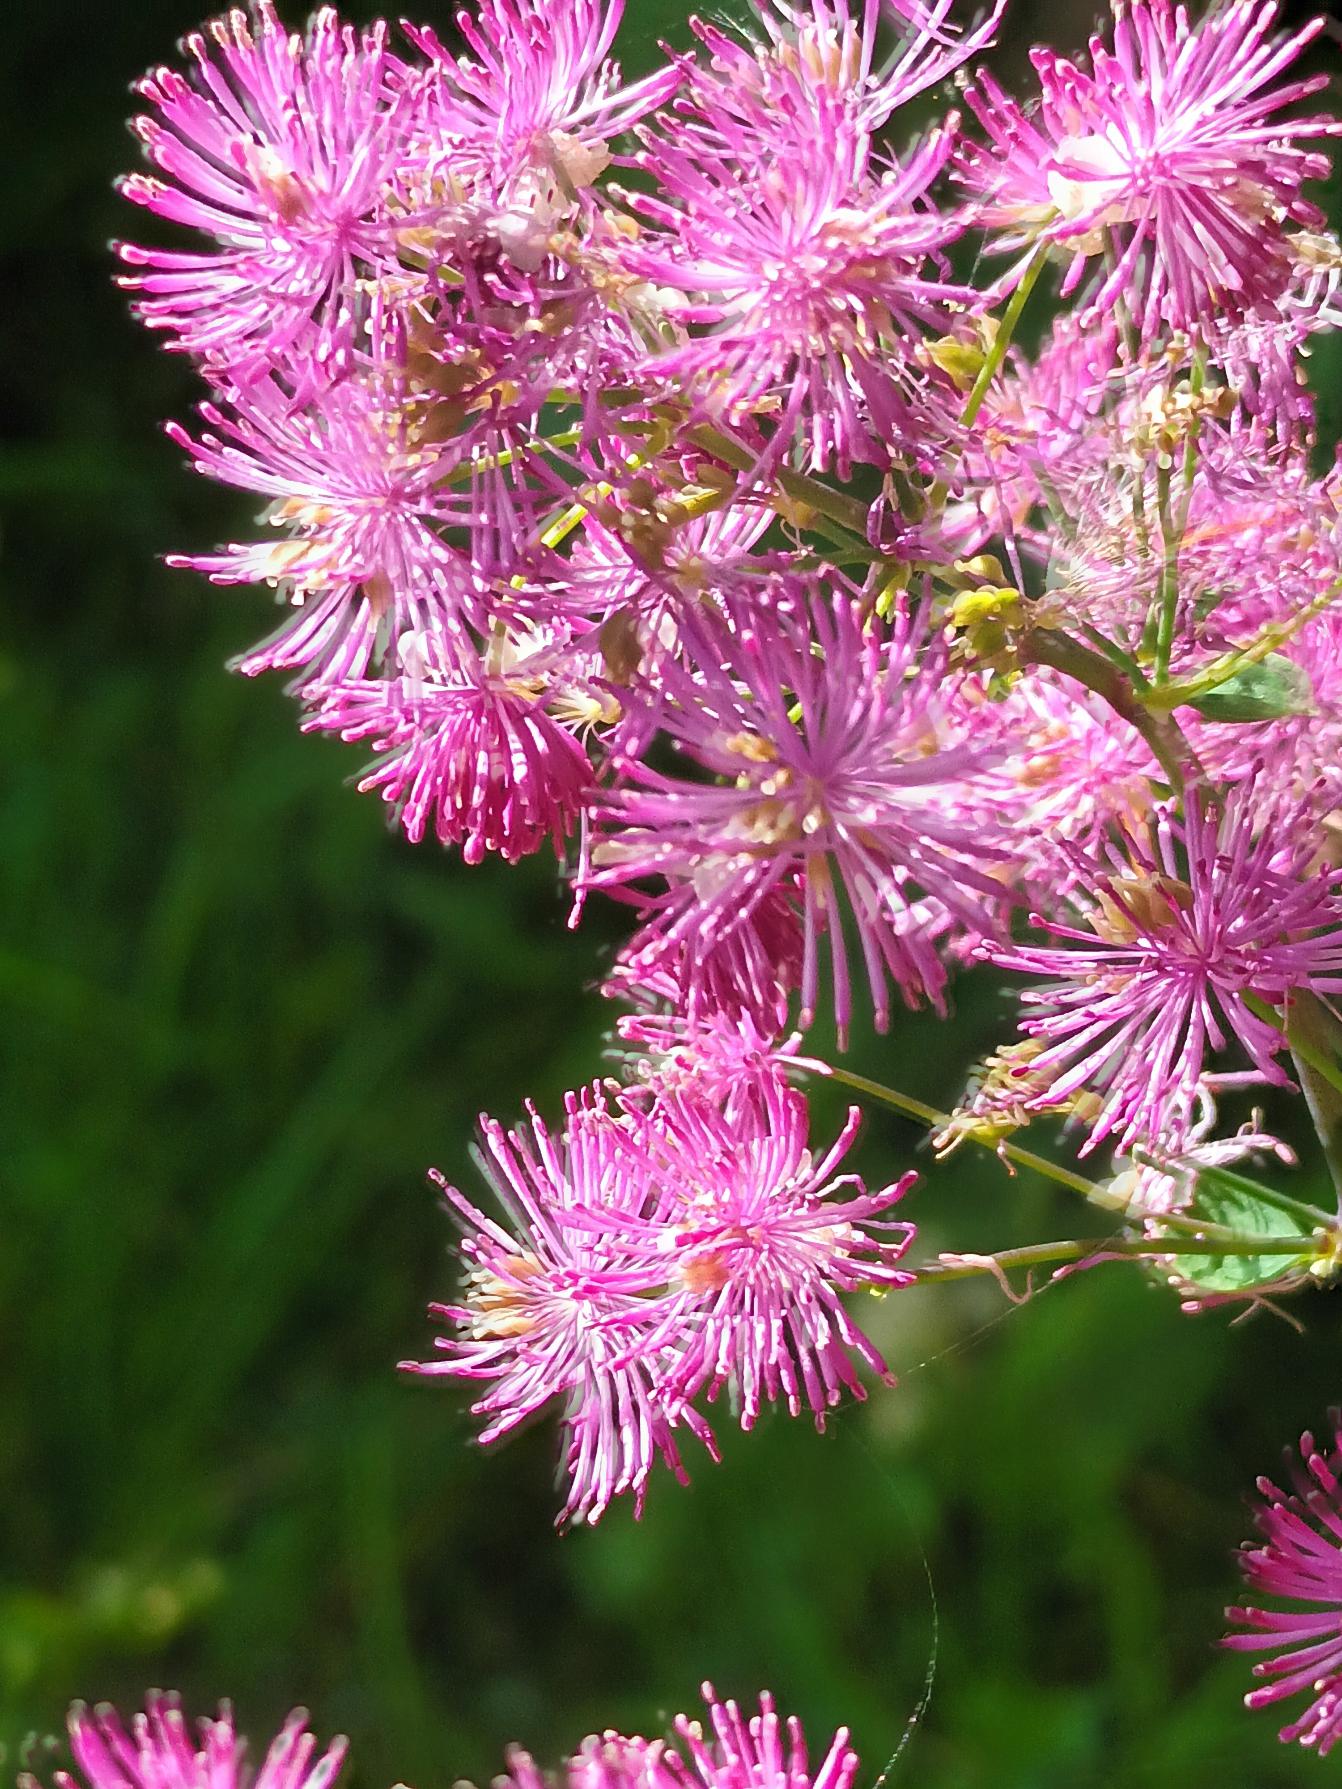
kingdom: Plantae
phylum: Tracheophyta
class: Magnoliopsida
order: Ranunculales
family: Ranunculaceae
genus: Thalictrum
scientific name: Thalictrum delavayi
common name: Viol-frøstjerne
